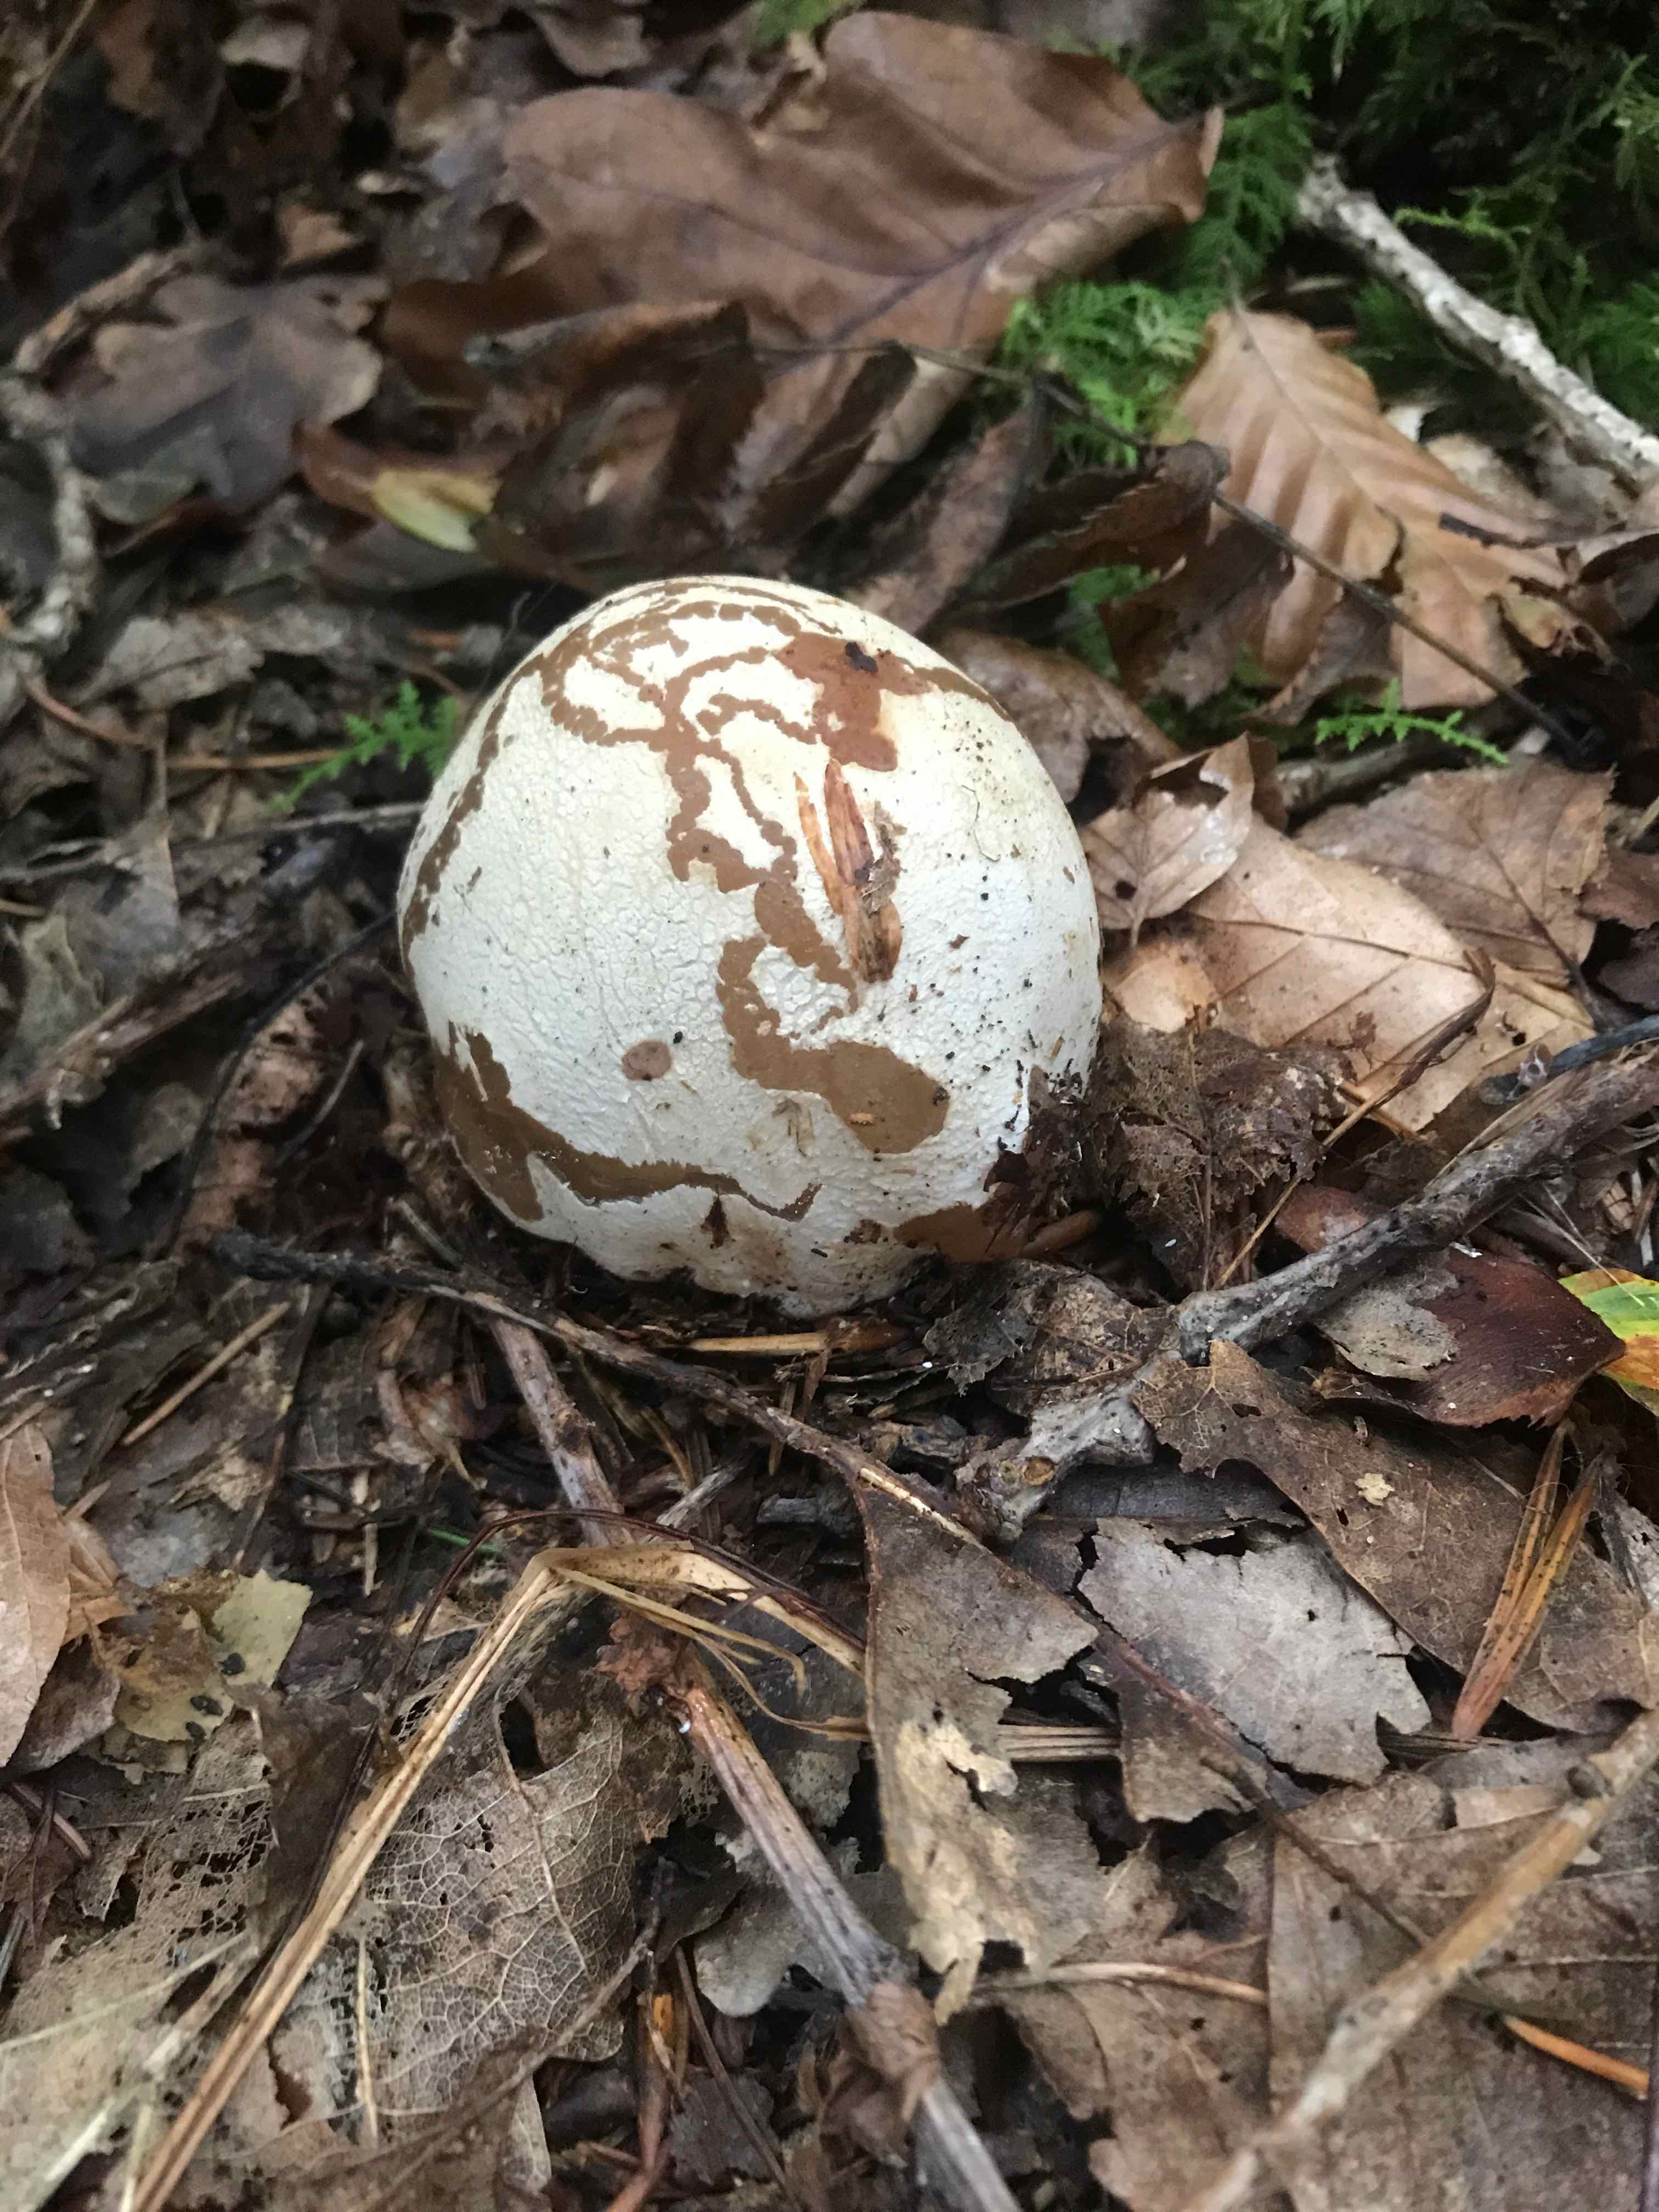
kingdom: Fungi
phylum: Basidiomycota
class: Agaricomycetes
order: Phallales
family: Phallaceae
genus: Phallus
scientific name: Phallus impudicus
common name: almindelig stinksvamp
